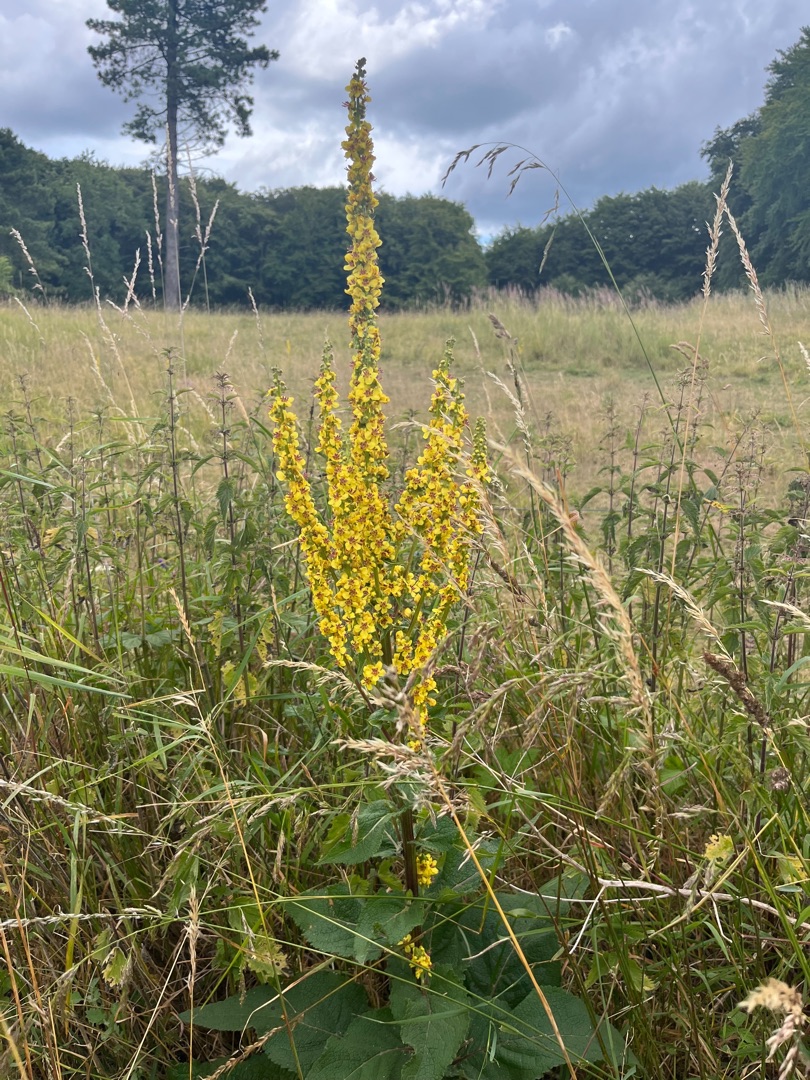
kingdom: Plantae
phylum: Tracheophyta
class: Magnoliopsida
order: Lamiales
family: Scrophulariaceae
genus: Verbascum
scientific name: Verbascum nigrum
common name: Mørk kongelys
